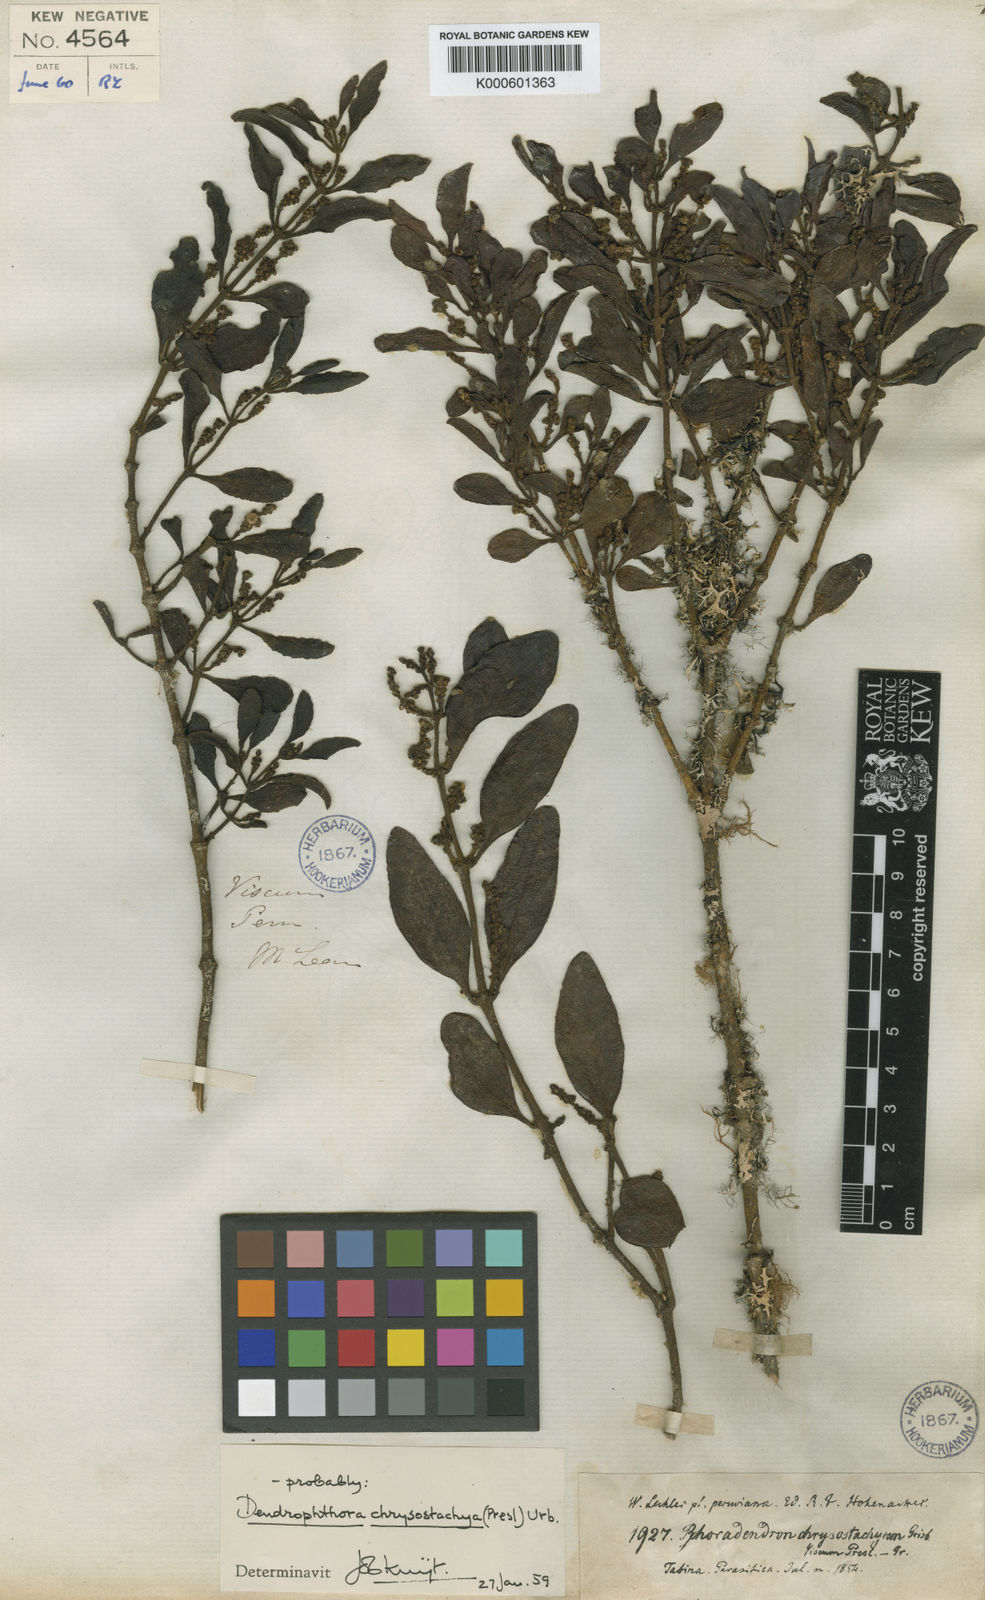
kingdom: Plantae
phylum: Tracheophyta
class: Magnoliopsida
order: Santalales
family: Viscaceae
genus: Dendrophthora
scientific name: Dendrophthora chrysostachya
